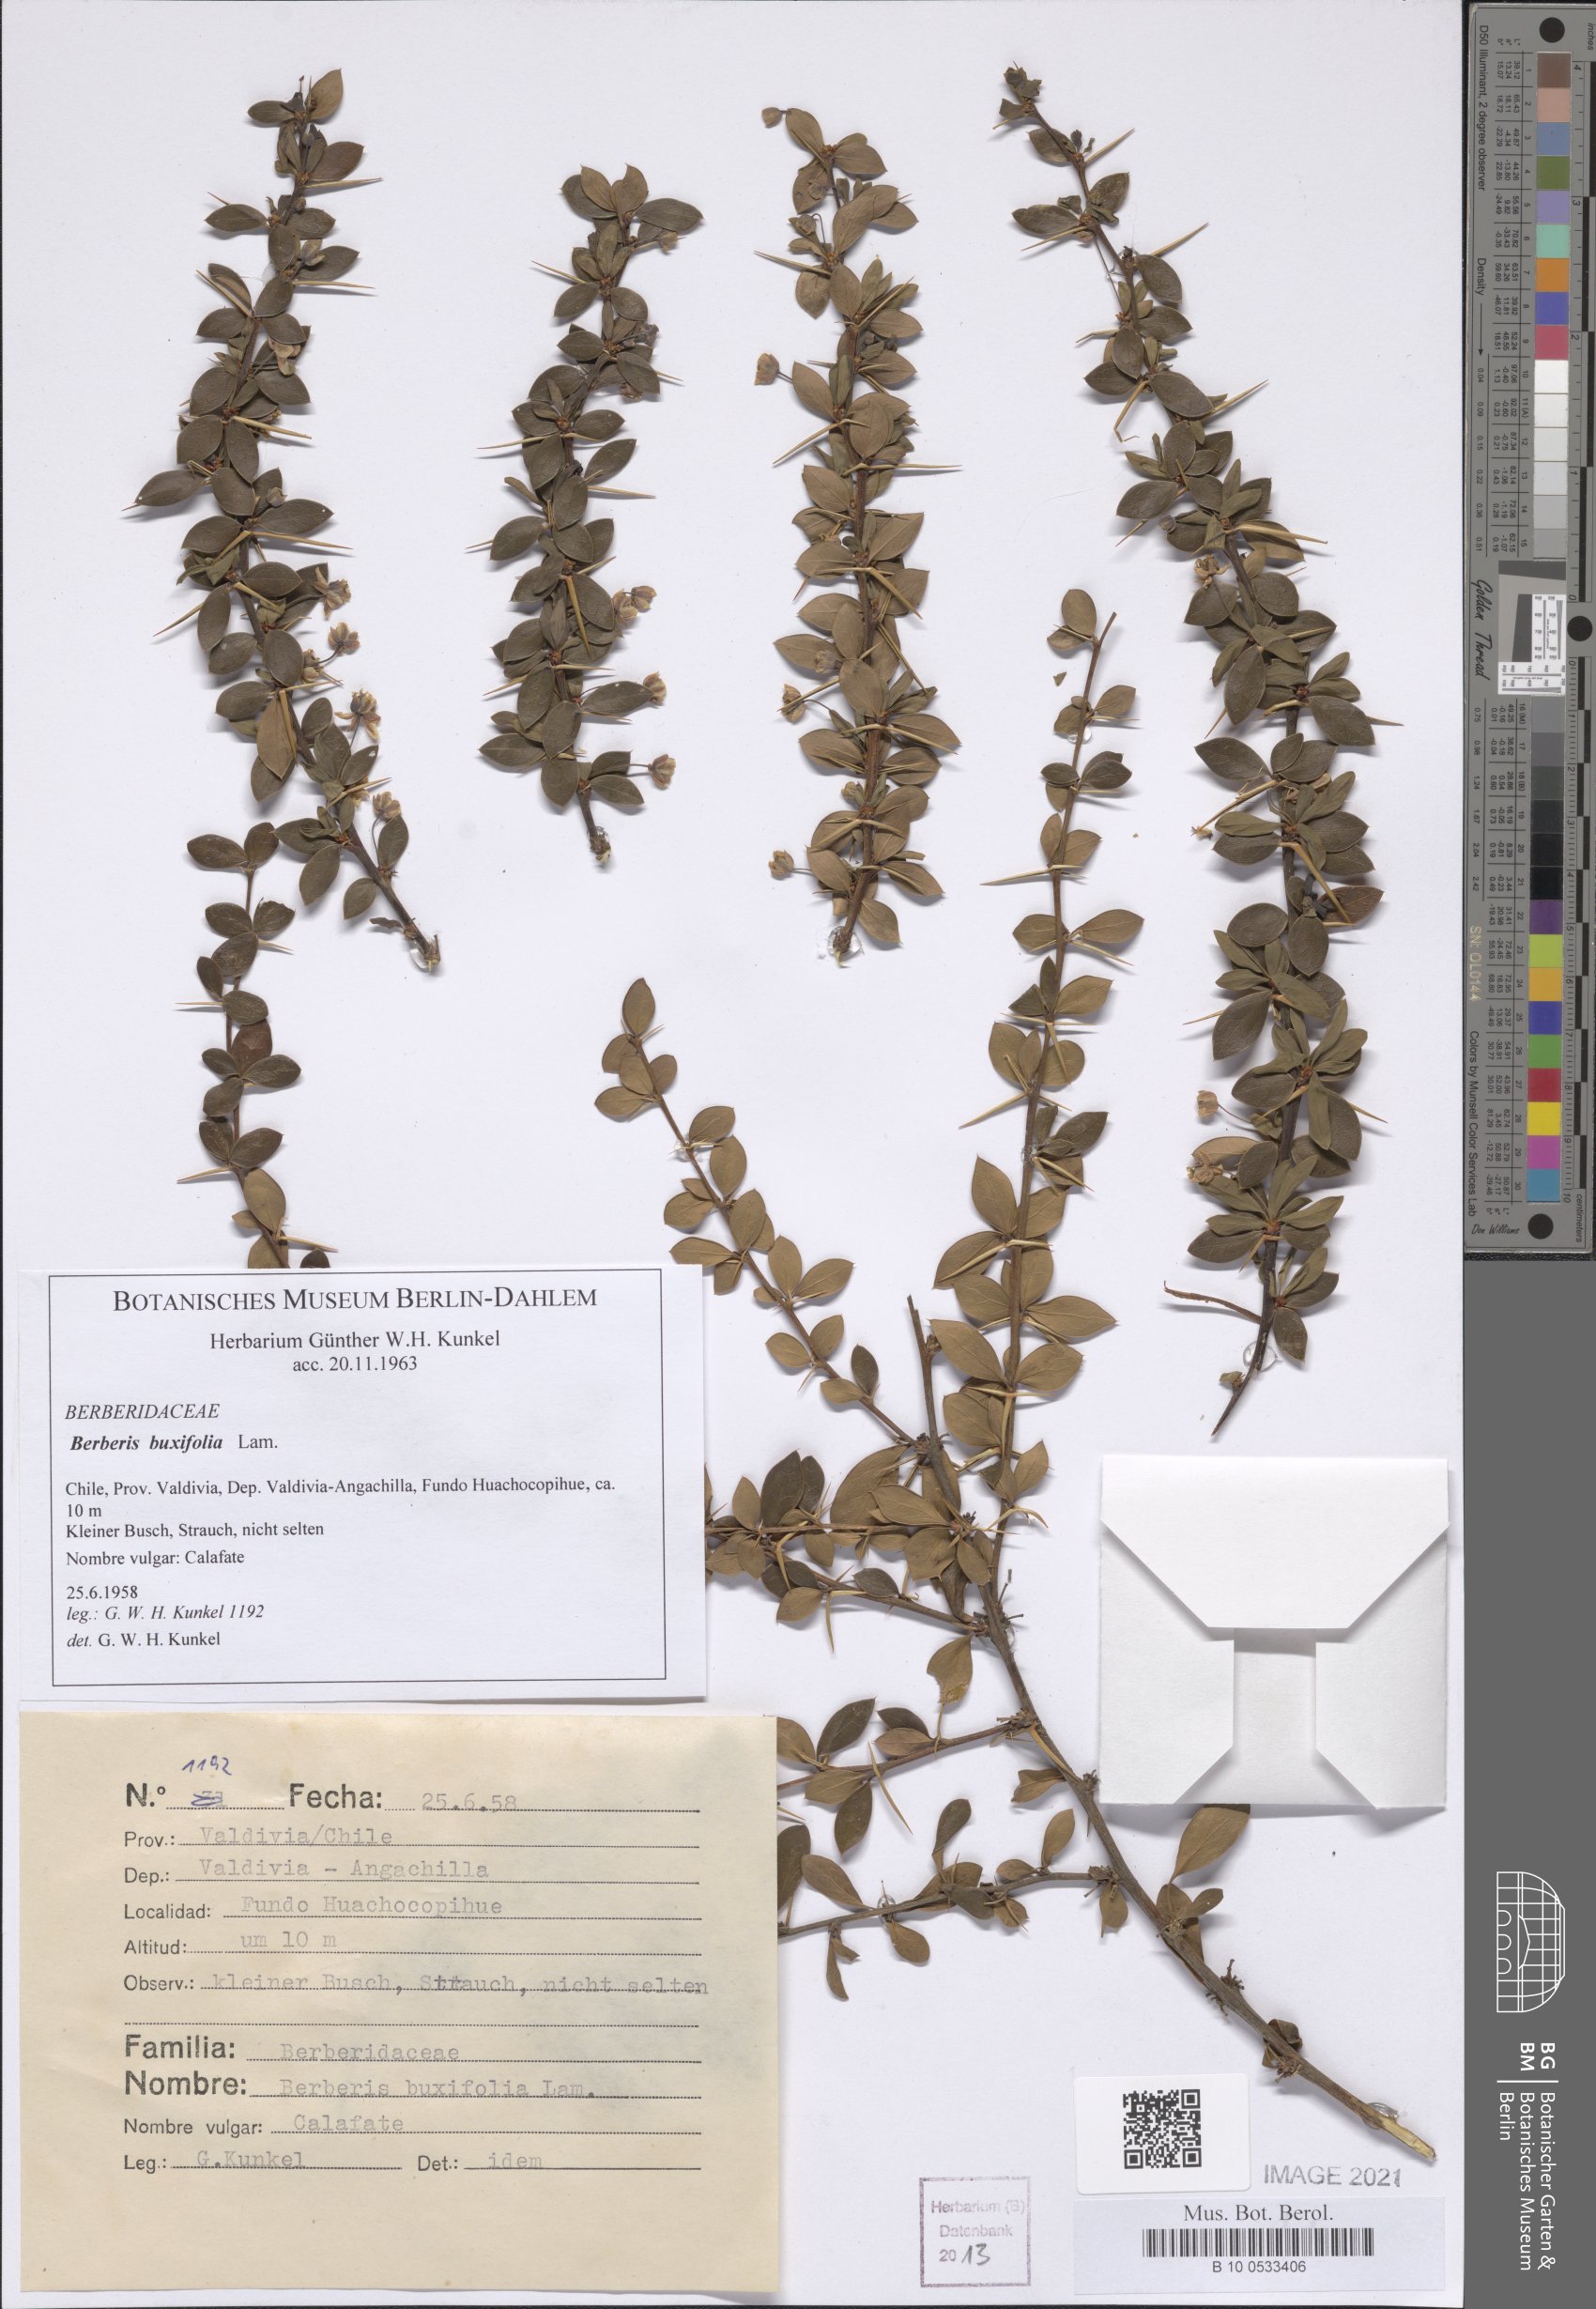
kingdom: Plantae
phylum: Tracheophyta
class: Magnoliopsida
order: Ranunculales
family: Berberidaceae
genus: Berberis
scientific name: Berberis microphylla
